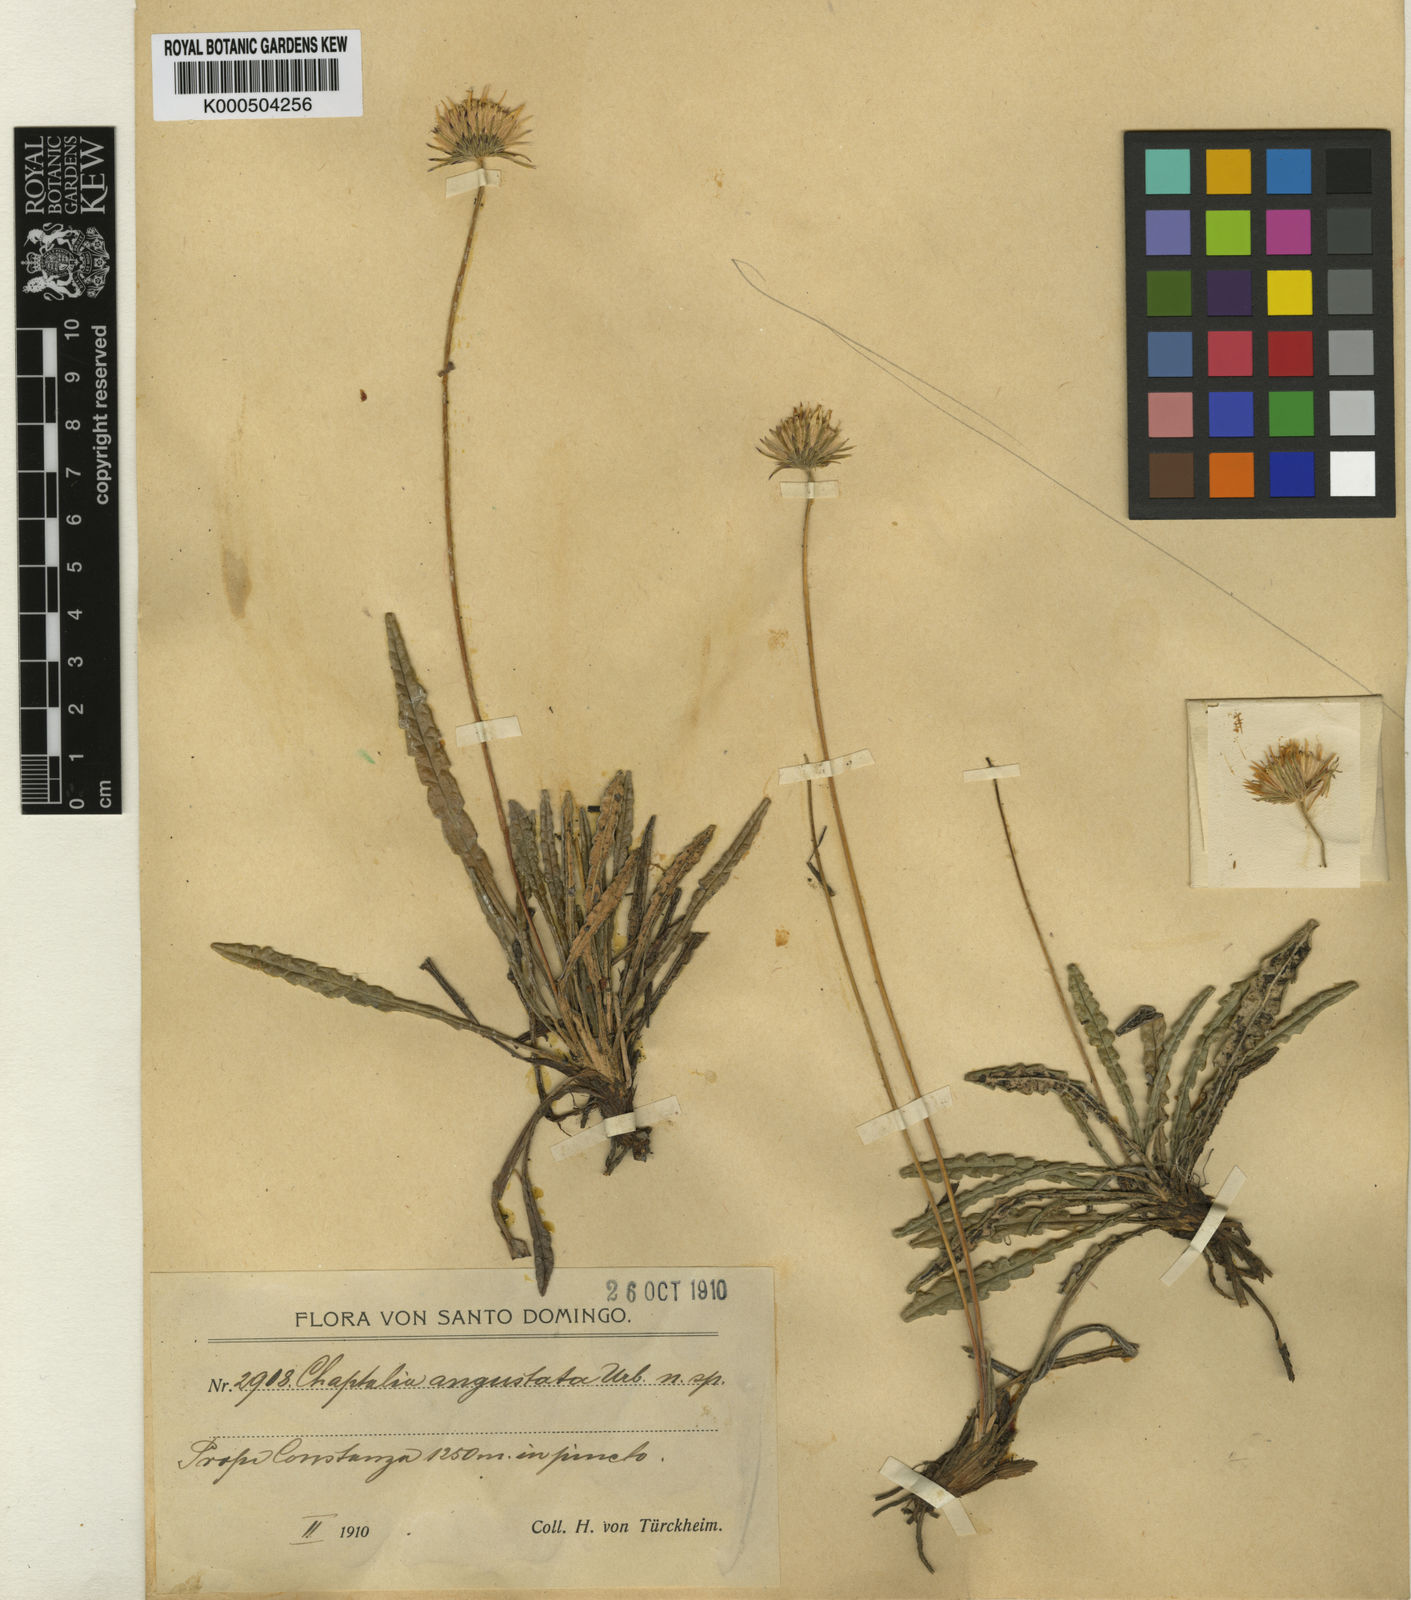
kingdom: Plantae
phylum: Tracheophyta
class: Magnoliopsida
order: Asterales
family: Asteraceae
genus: Chaptalia
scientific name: Chaptalia angustata
